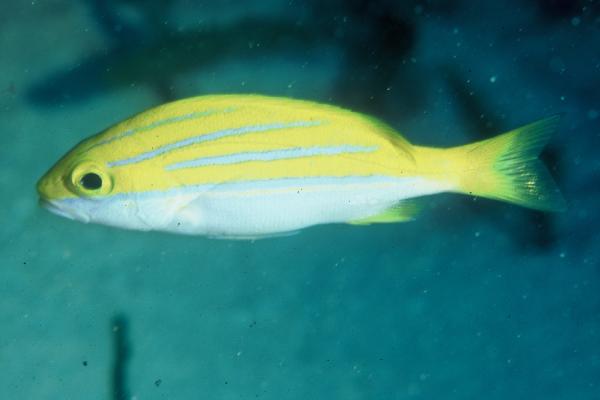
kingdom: Animalia
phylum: Chordata
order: Perciformes
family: Lutjanidae
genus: Lutjanus
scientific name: Lutjanus bengalensis
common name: Bengal snapper
